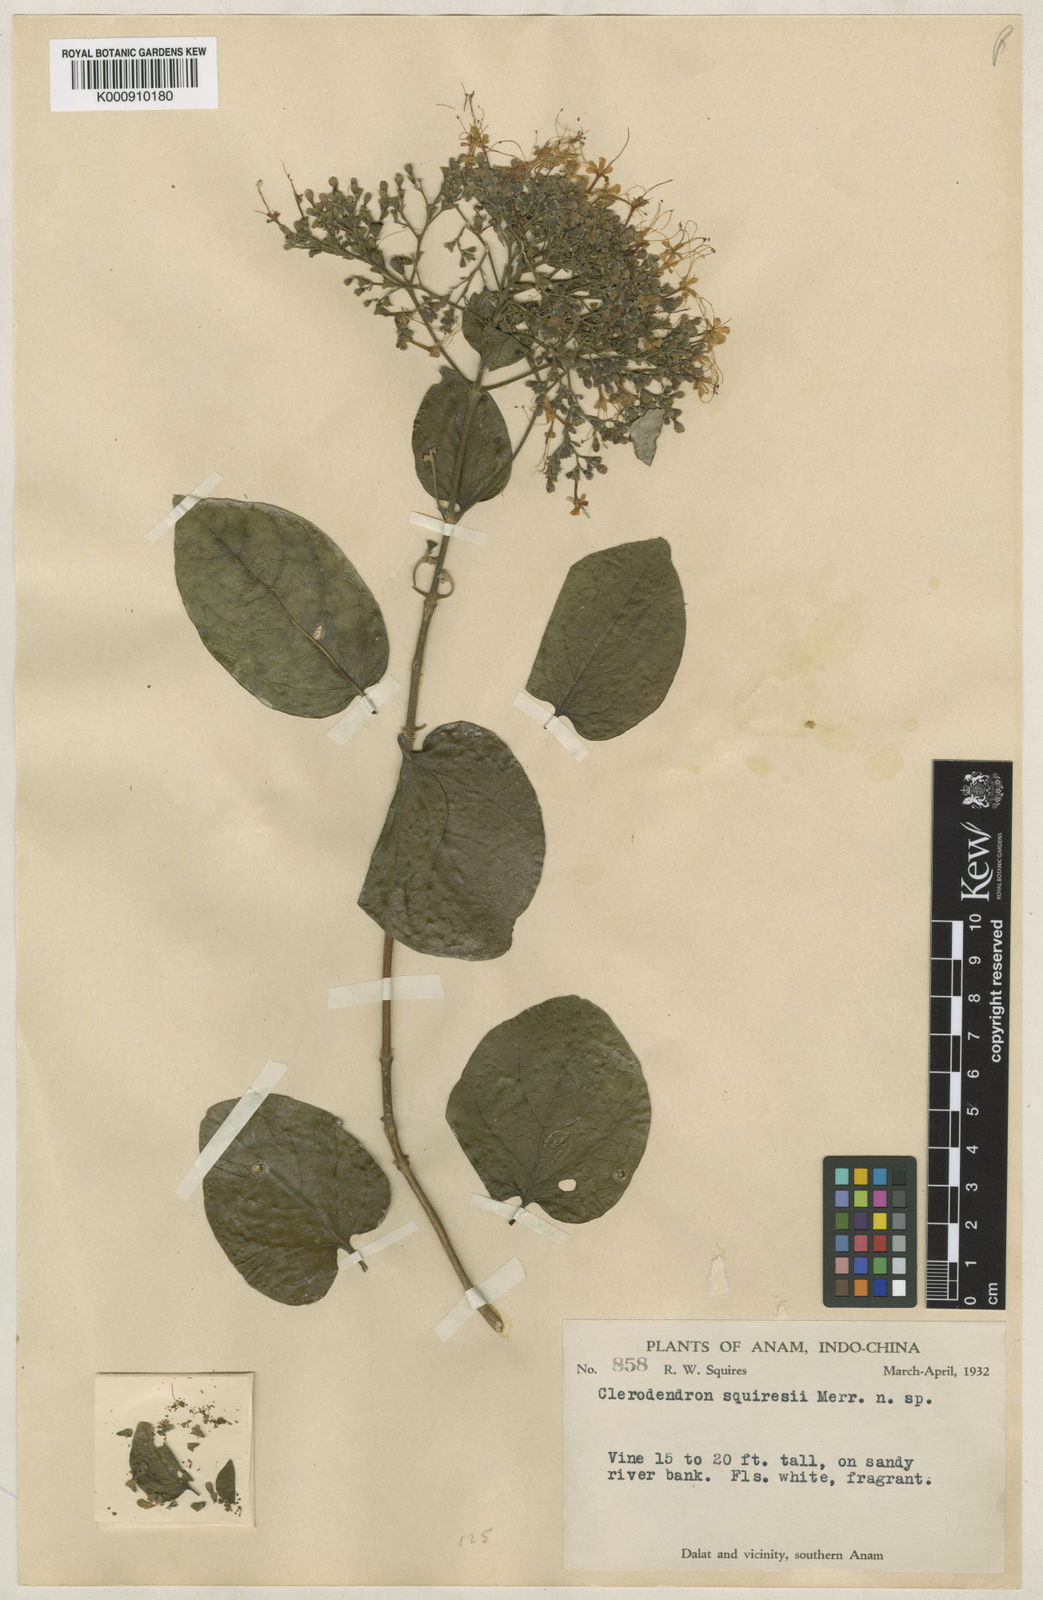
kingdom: Plantae
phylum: Tracheophyta
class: Magnoliopsida
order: Lamiales
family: Lamiaceae
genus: Glossocarya
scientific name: Glossocarya siamensis
